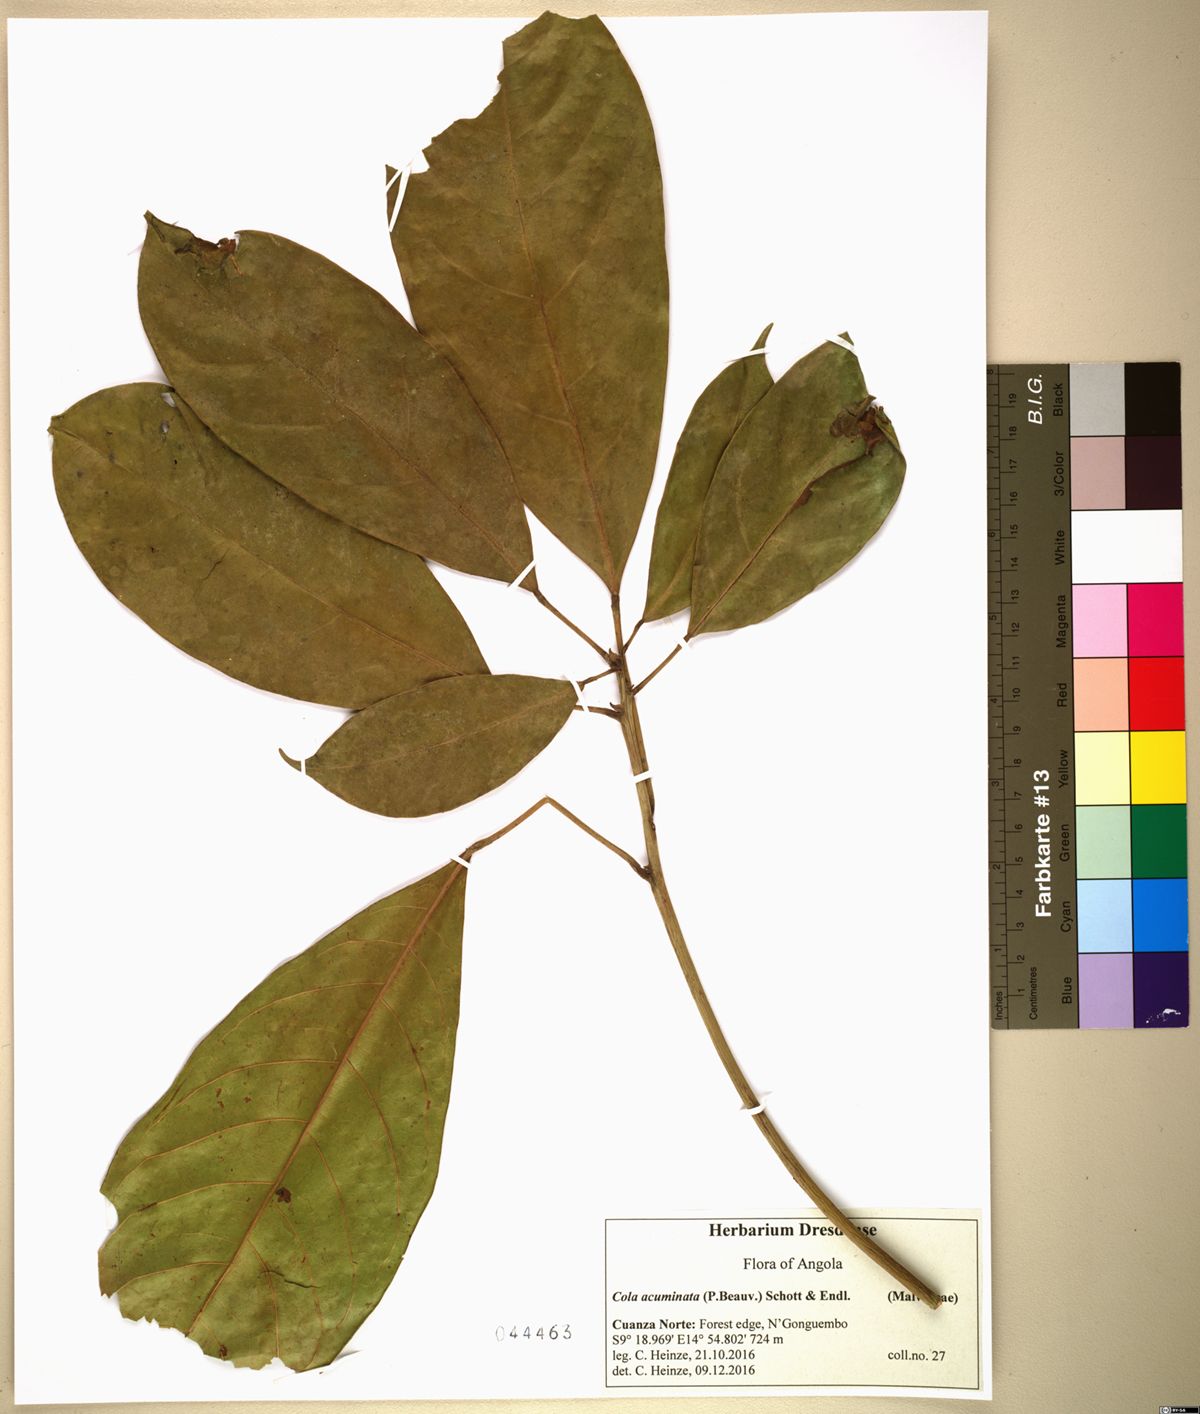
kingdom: Plantae
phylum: Tracheophyta
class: Magnoliopsida
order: Malvales
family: Malvaceae
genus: Cola
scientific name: Cola acuminata
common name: True kola
